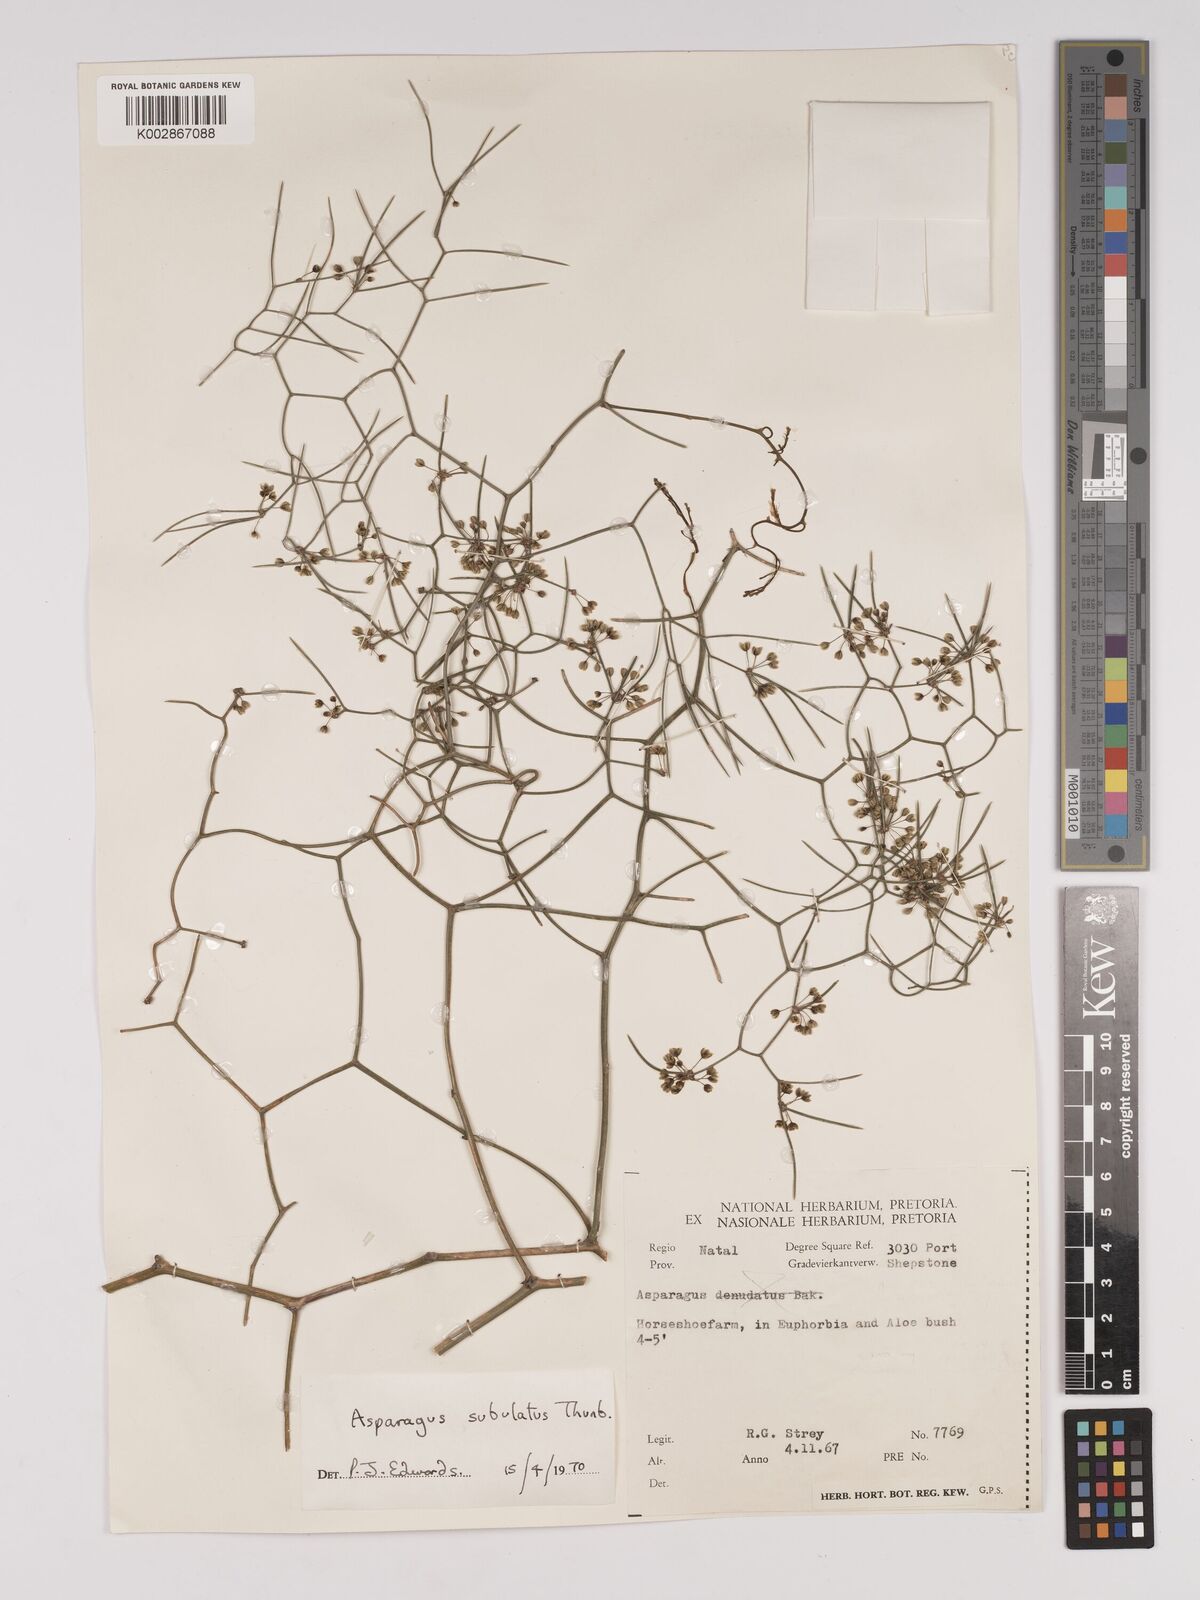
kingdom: Plantae
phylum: Tracheophyta
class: Liliopsida
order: Asparagales
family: Asparagaceae
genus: Asparagus
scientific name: Asparagus subulatus
